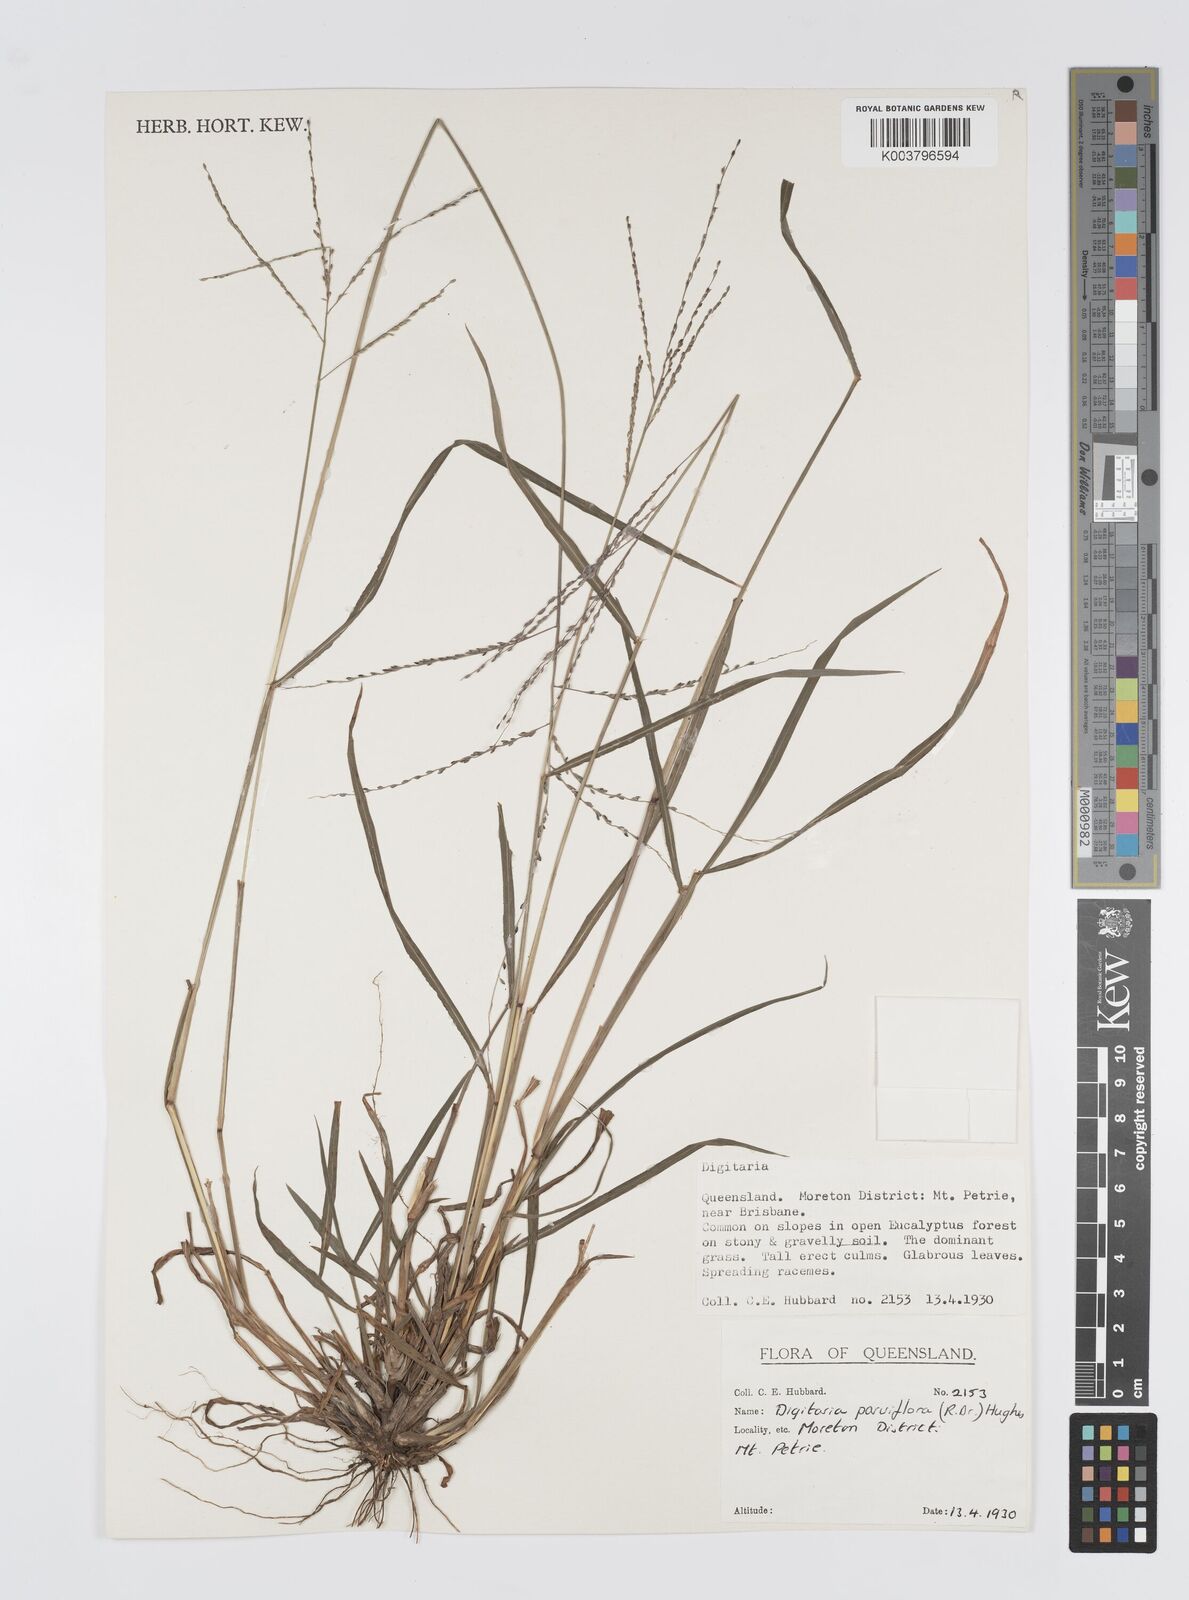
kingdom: Plantae
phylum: Tracheophyta
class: Liliopsida
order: Poales
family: Poaceae
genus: Digitaria
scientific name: Digitaria parviflora
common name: Small-flower finger grass
